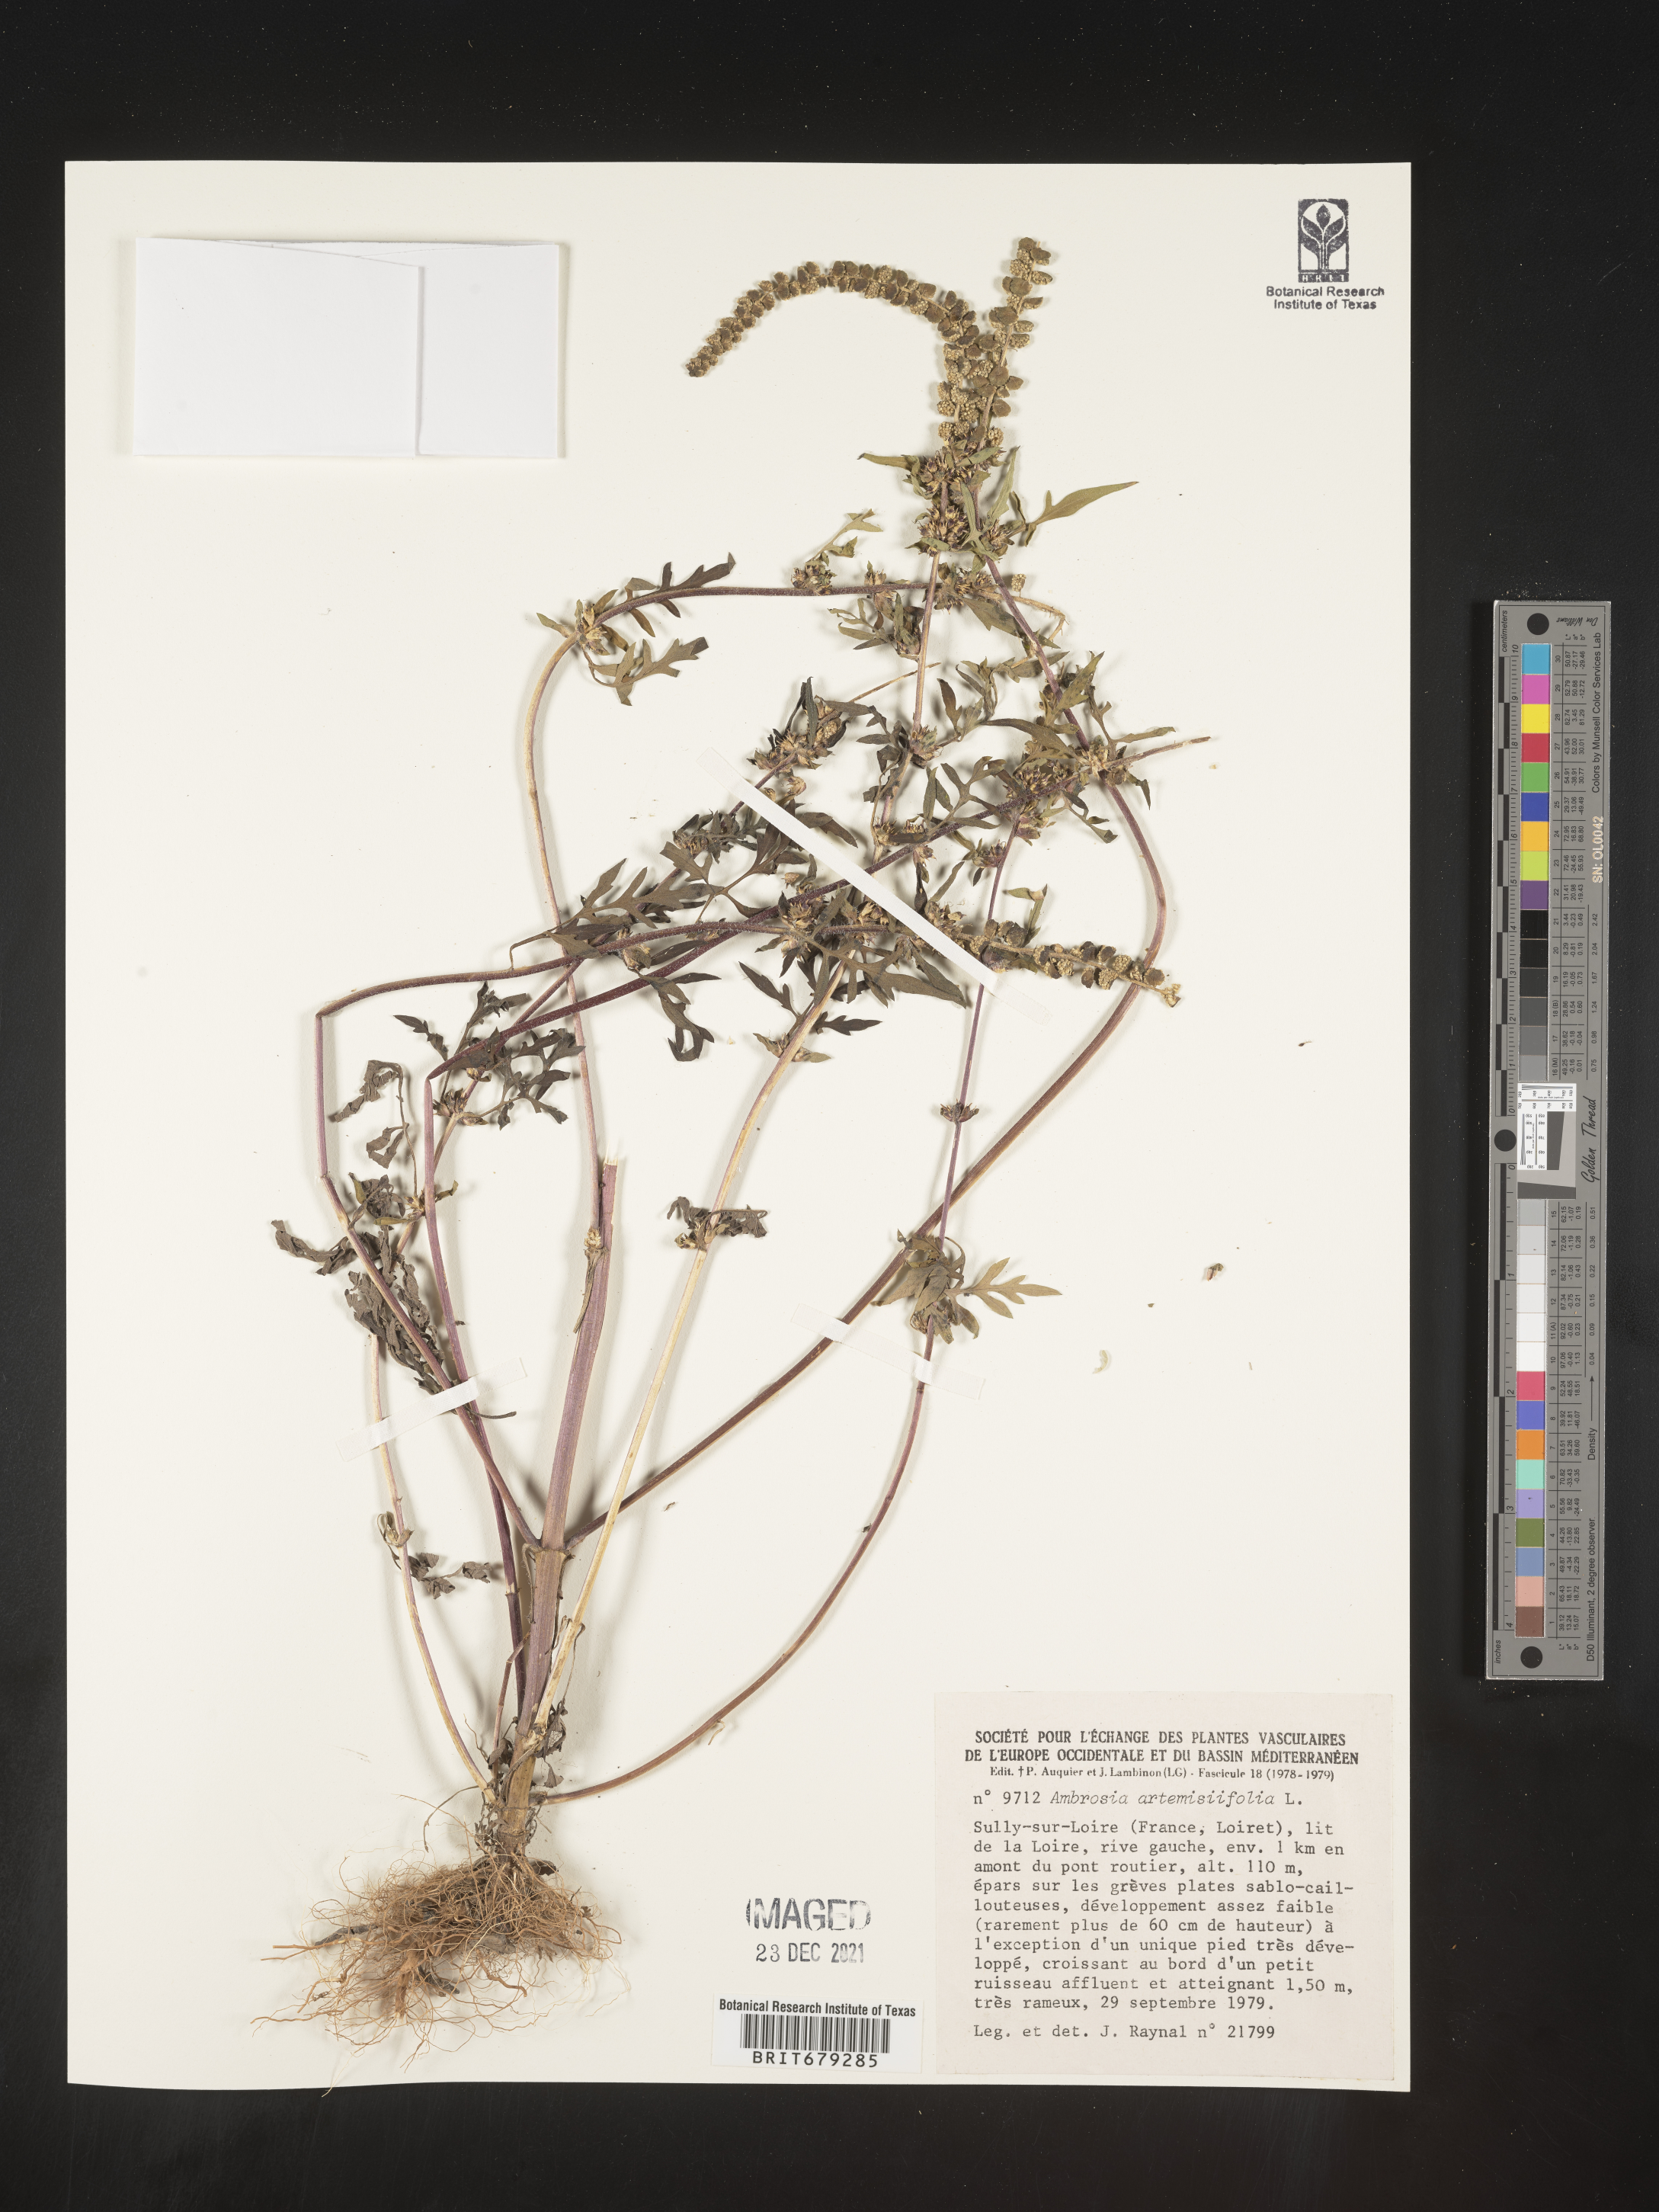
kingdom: Plantae
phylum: Tracheophyta
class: Magnoliopsida
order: Asterales
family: Asteraceae
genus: Ambrosia
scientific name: Ambrosia
